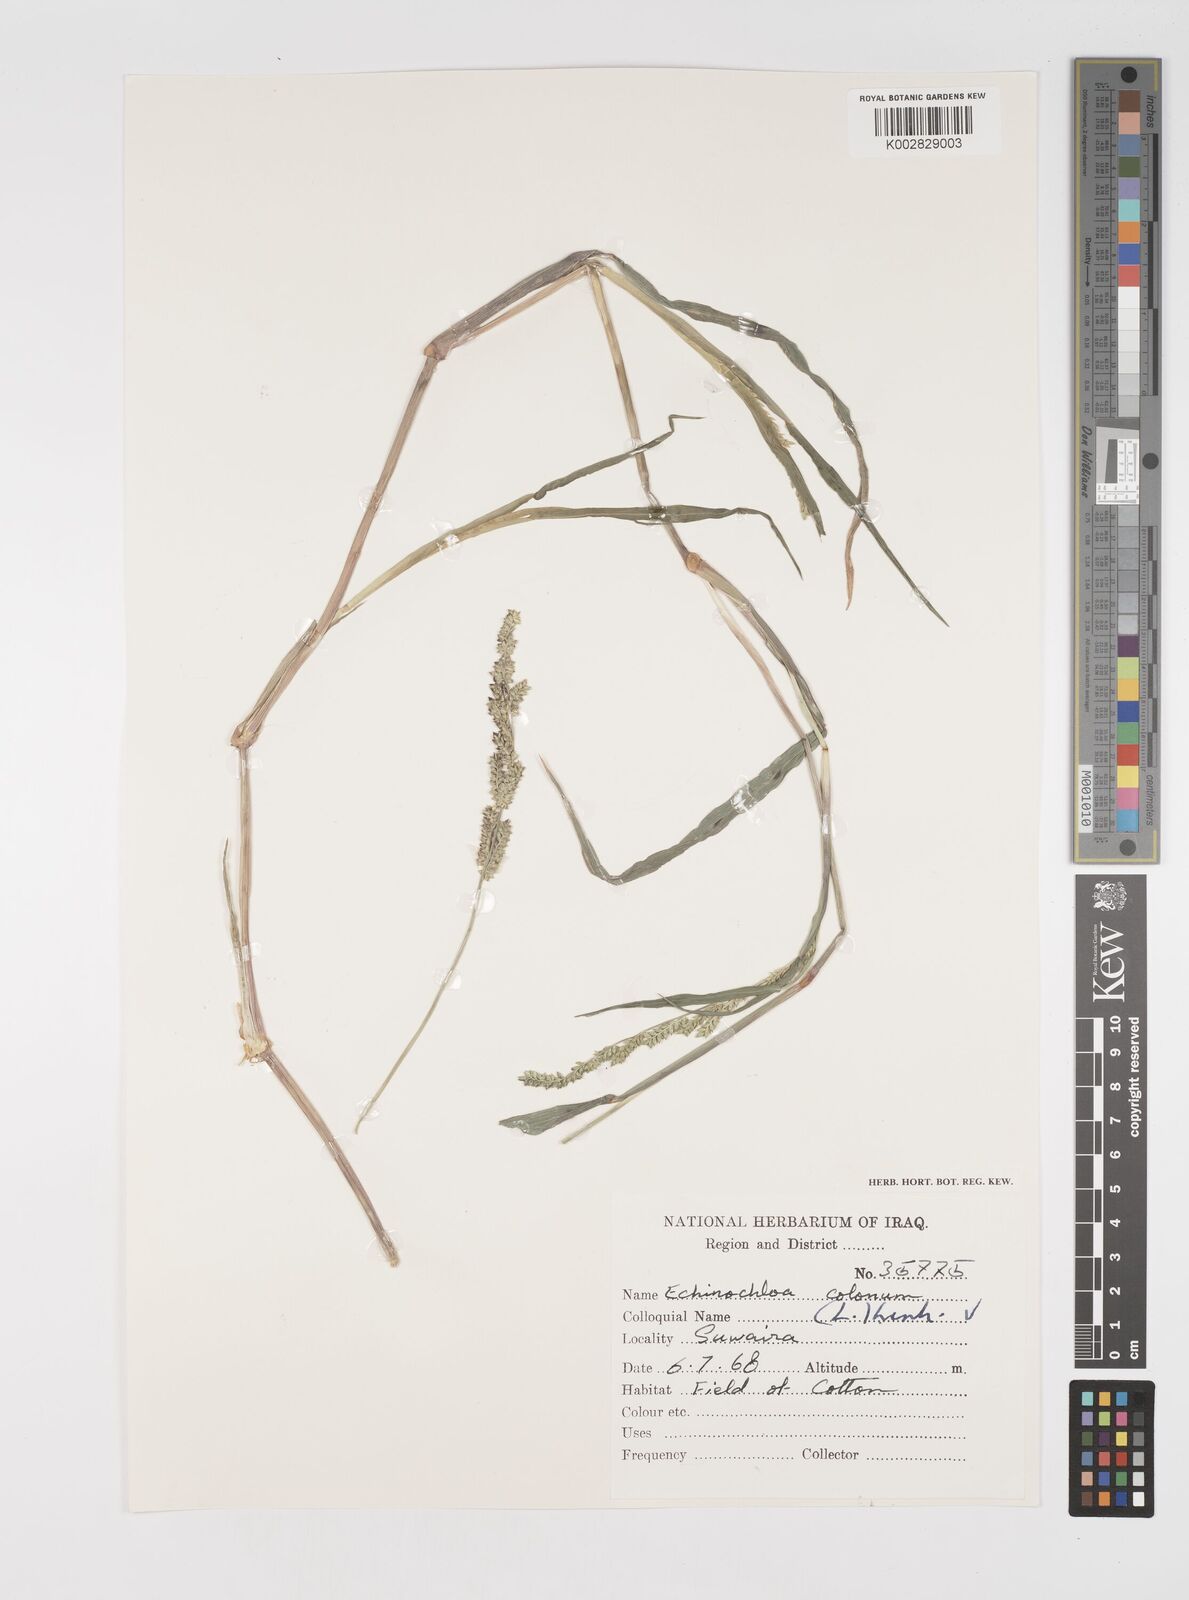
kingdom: Plantae
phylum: Tracheophyta
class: Liliopsida
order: Poales
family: Poaceae
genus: Echinochloa
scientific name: Echinochloa colonum
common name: Jungle rice
